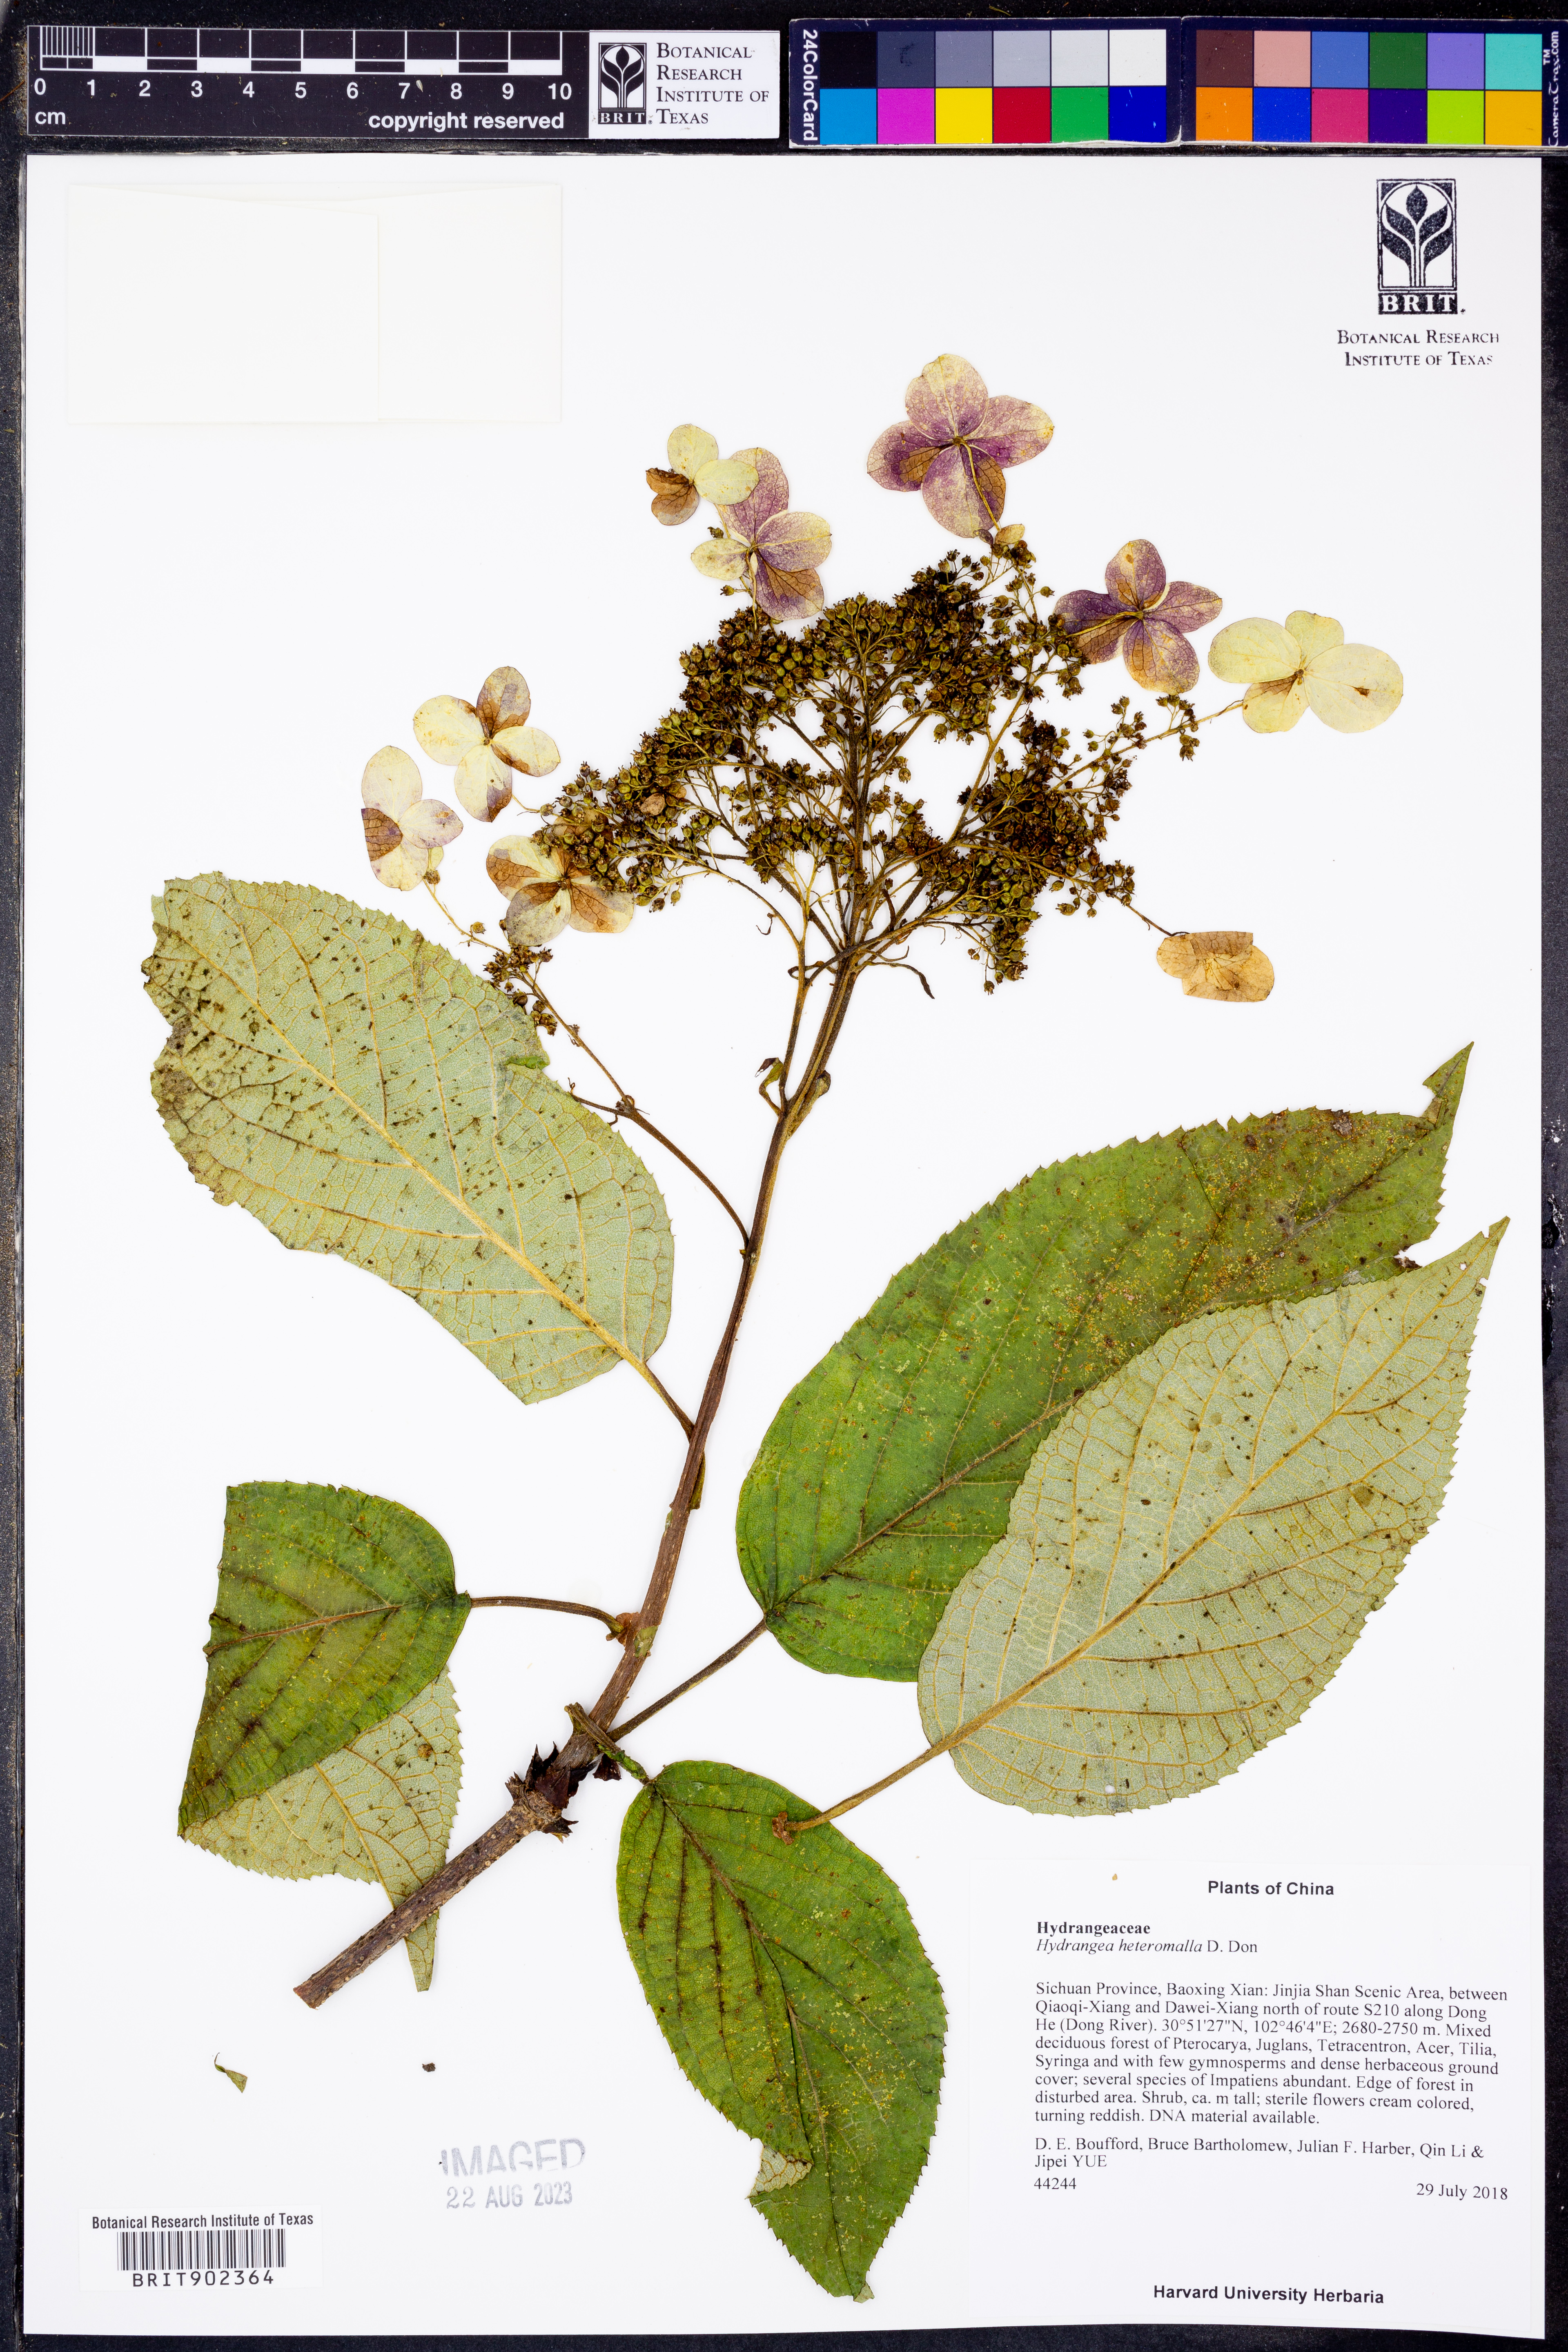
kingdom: Plantae
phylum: Tracheophyta
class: Magnoliopsida
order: Cornales
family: Hydrangeaceae
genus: Hydrangea
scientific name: Hydrangea heteromalla
